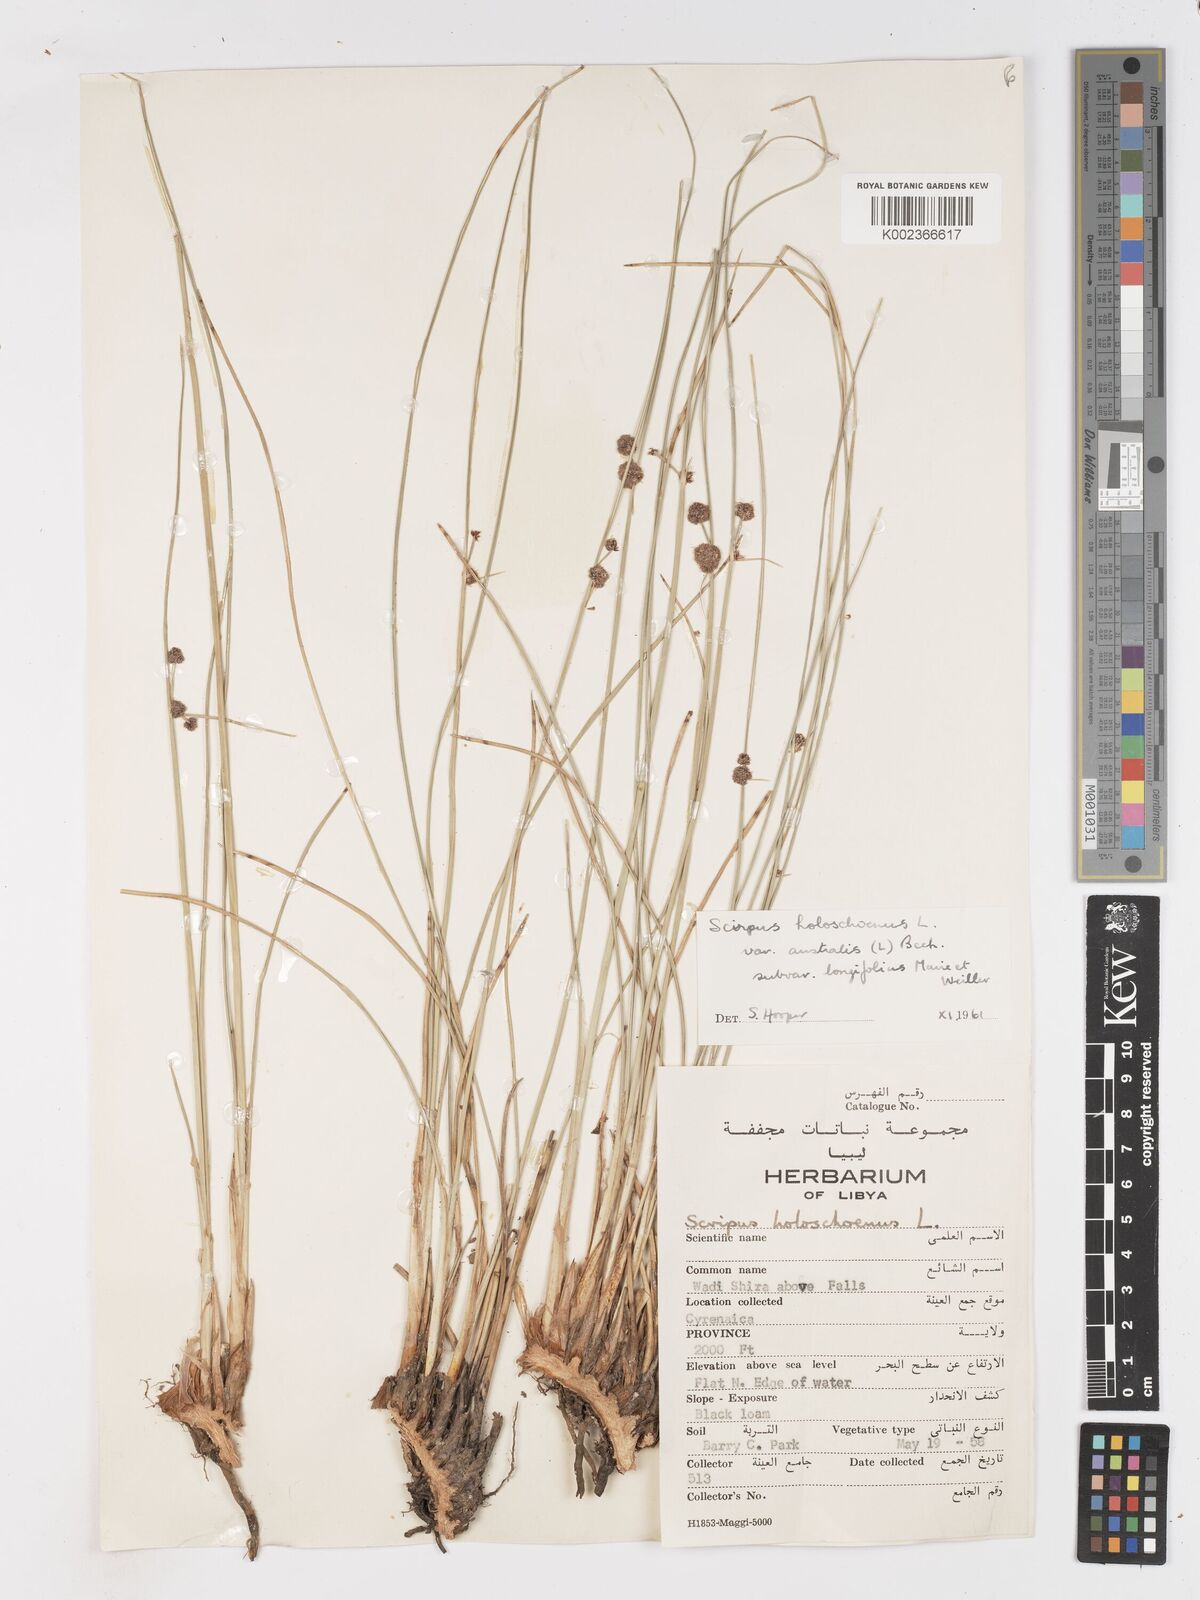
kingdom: Plantae
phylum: Tracheophyta
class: Liliopsida
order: Poales
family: Cyperaceae
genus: Scirpoides
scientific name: Scirpoides holoschoenus
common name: Round-headed club-rush
